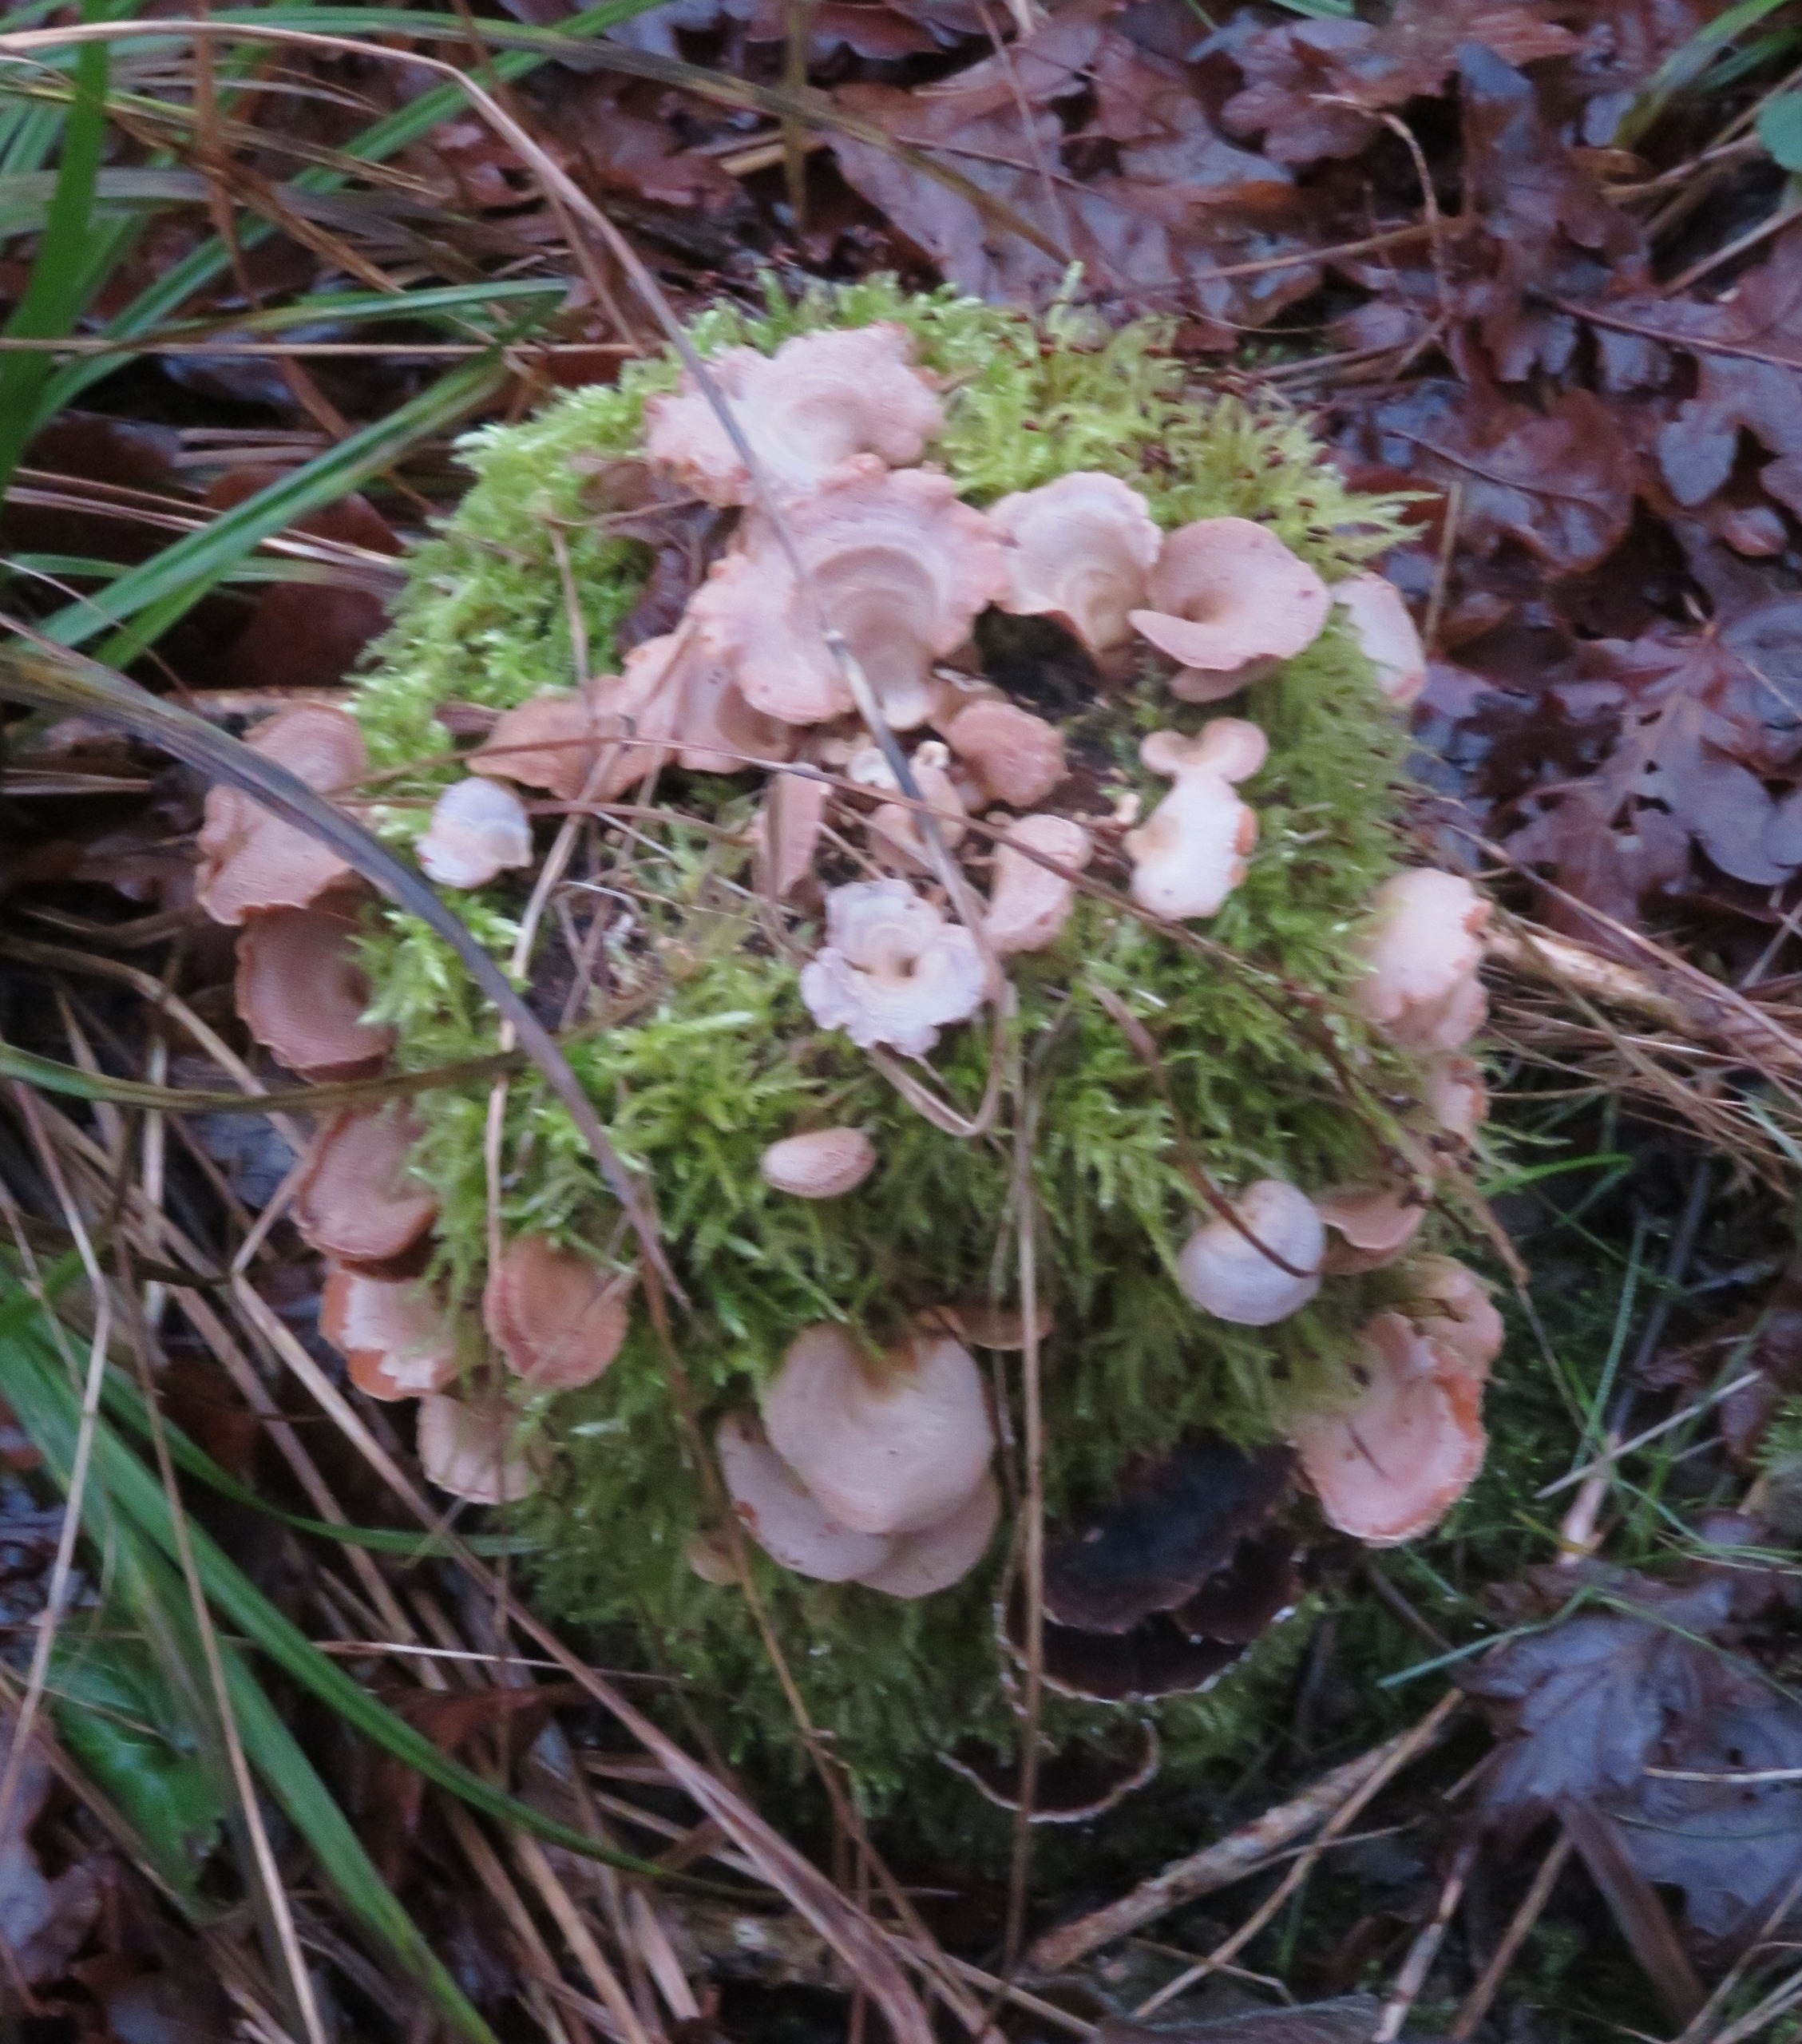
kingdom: Fungi
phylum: Basidiomycota
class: Agaricomycetes
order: Agaricales
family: Mycenaceae
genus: Panellus
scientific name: Panellus stipticus
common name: Kliddet epaulethat
